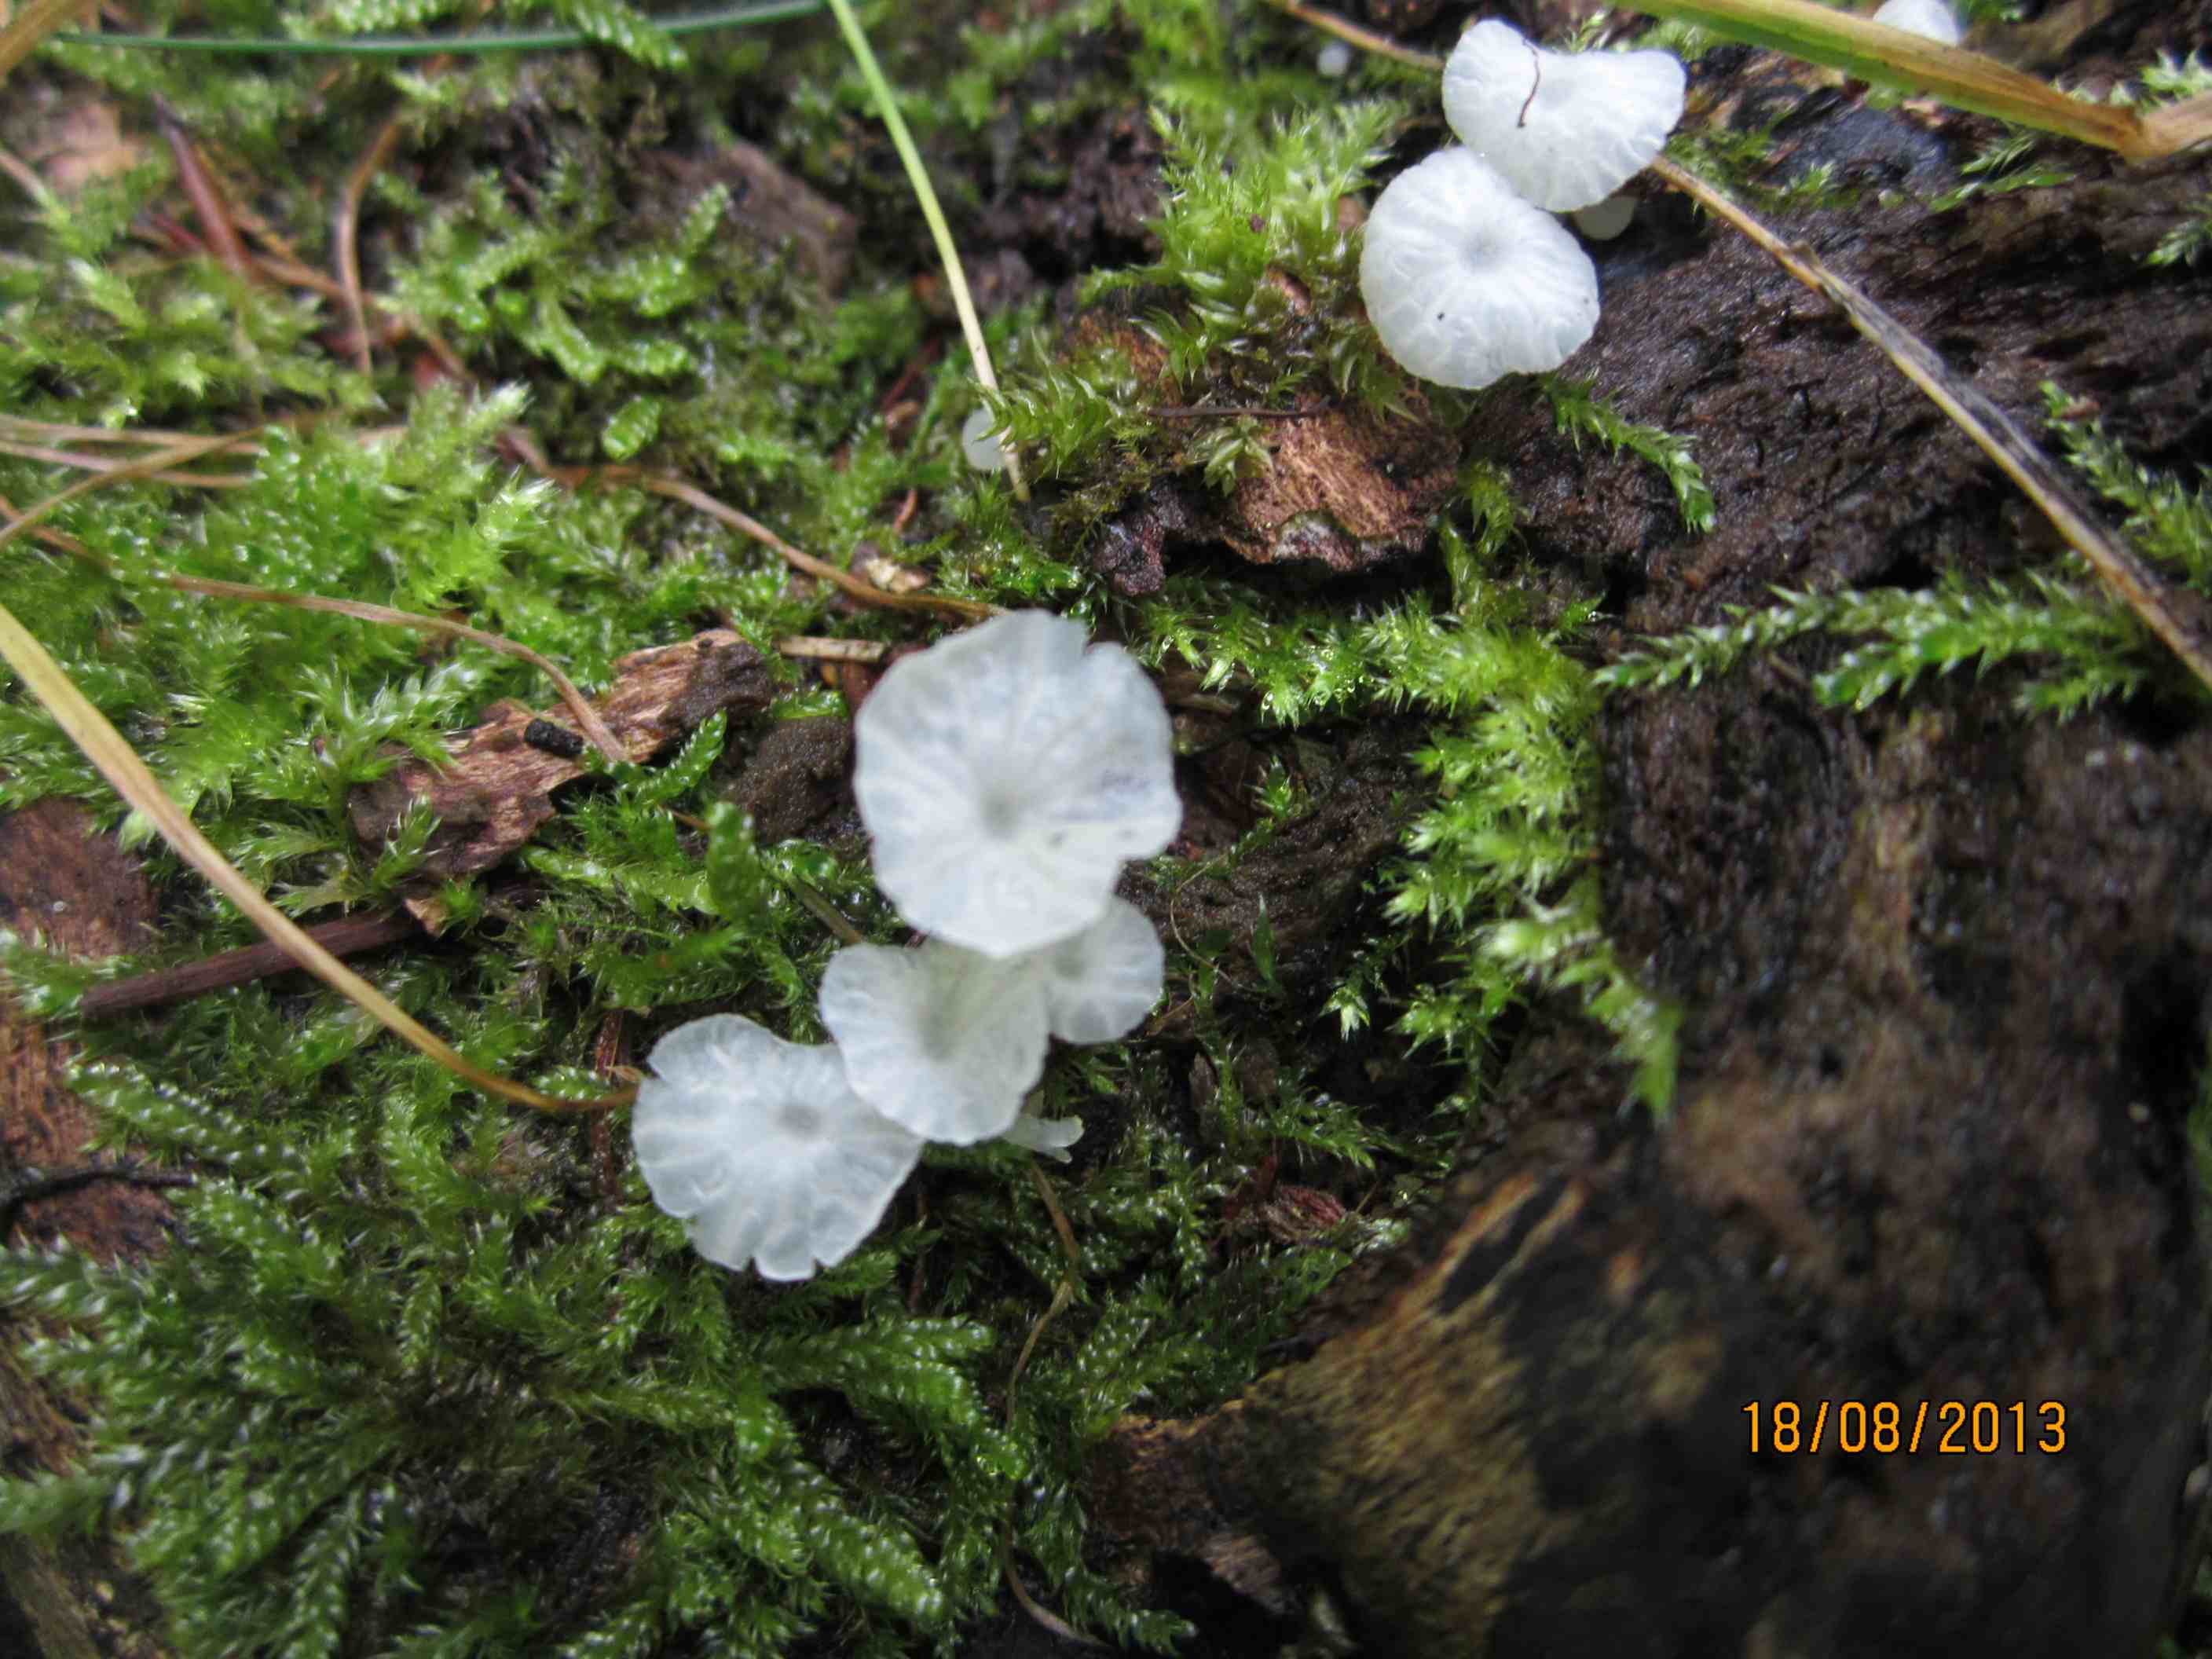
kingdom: Fungi
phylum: Basidiomycota
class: Agaricomycetes
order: Agaricales
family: Tricholomataceae
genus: Delicatula
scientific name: Delicatula integrella
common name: slørhuesvamp
